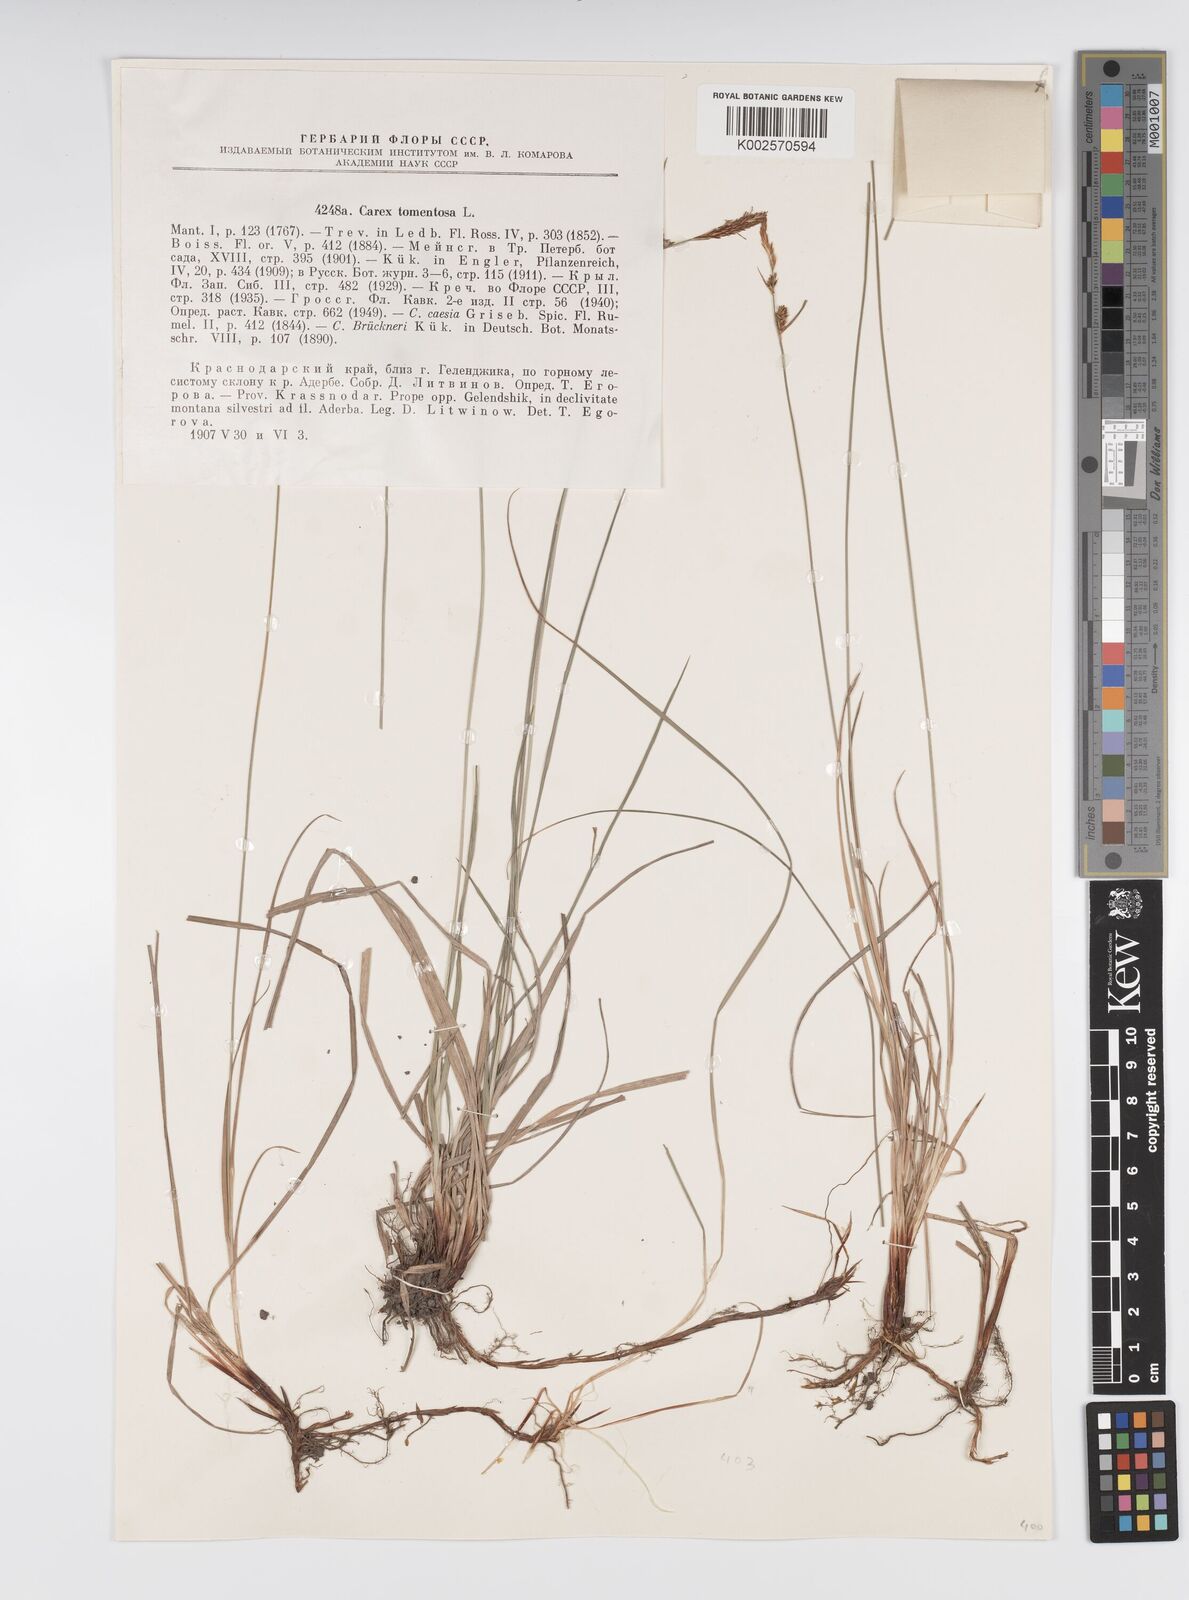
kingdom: Plantae
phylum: Tracheophyta
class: Liliopsida
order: Poales
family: Cyperaceae
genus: Carex
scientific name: Carex montana
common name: Soft-leaved sedge
